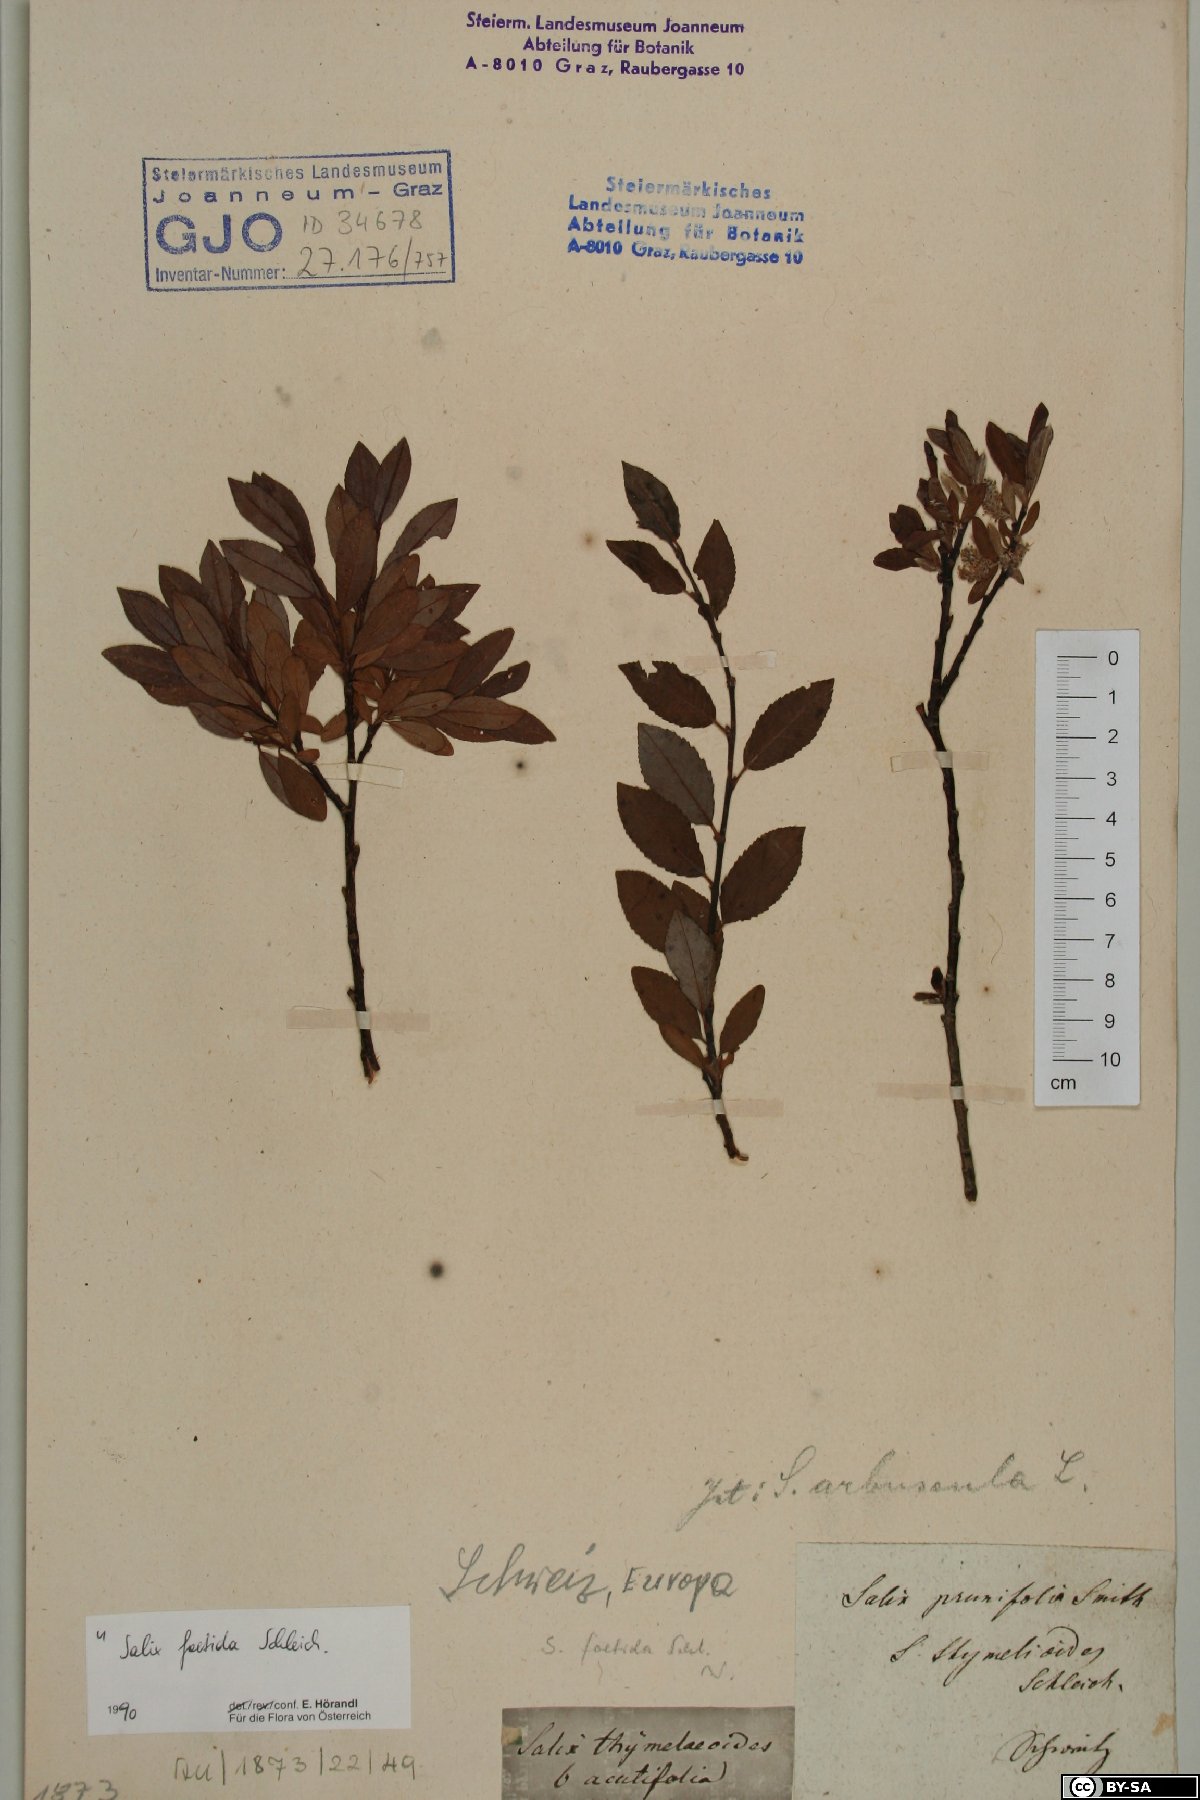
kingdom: Plantae
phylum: Tracheophyta
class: Magnoliopsida
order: Malpighiales
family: Salicaceae
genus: Salix
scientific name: Salix foetida
